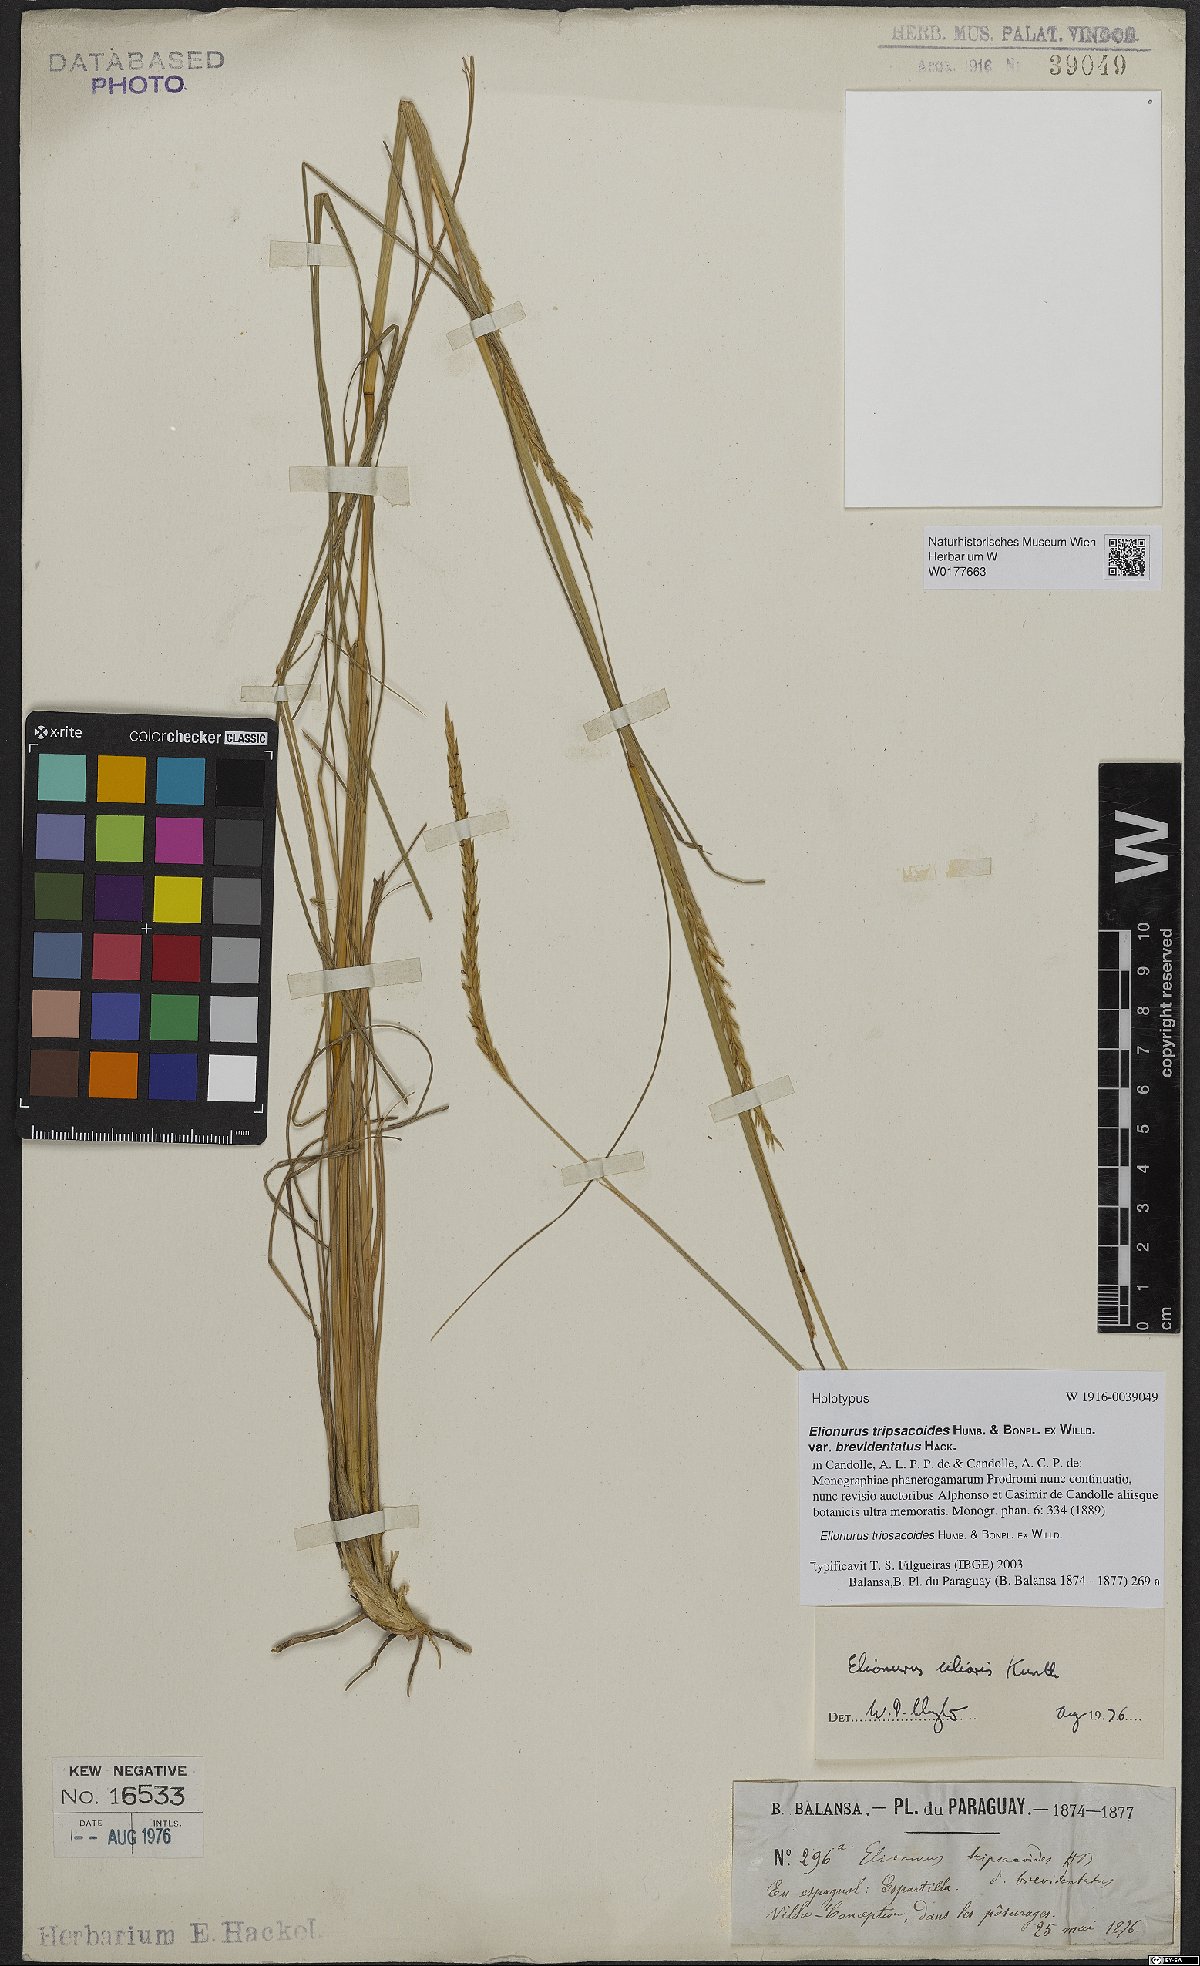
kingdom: Plantae
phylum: Tracheophyta
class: Liliopsida
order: Poales
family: Poaceae
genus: Elionurus
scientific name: Elionurus tripsacoides
